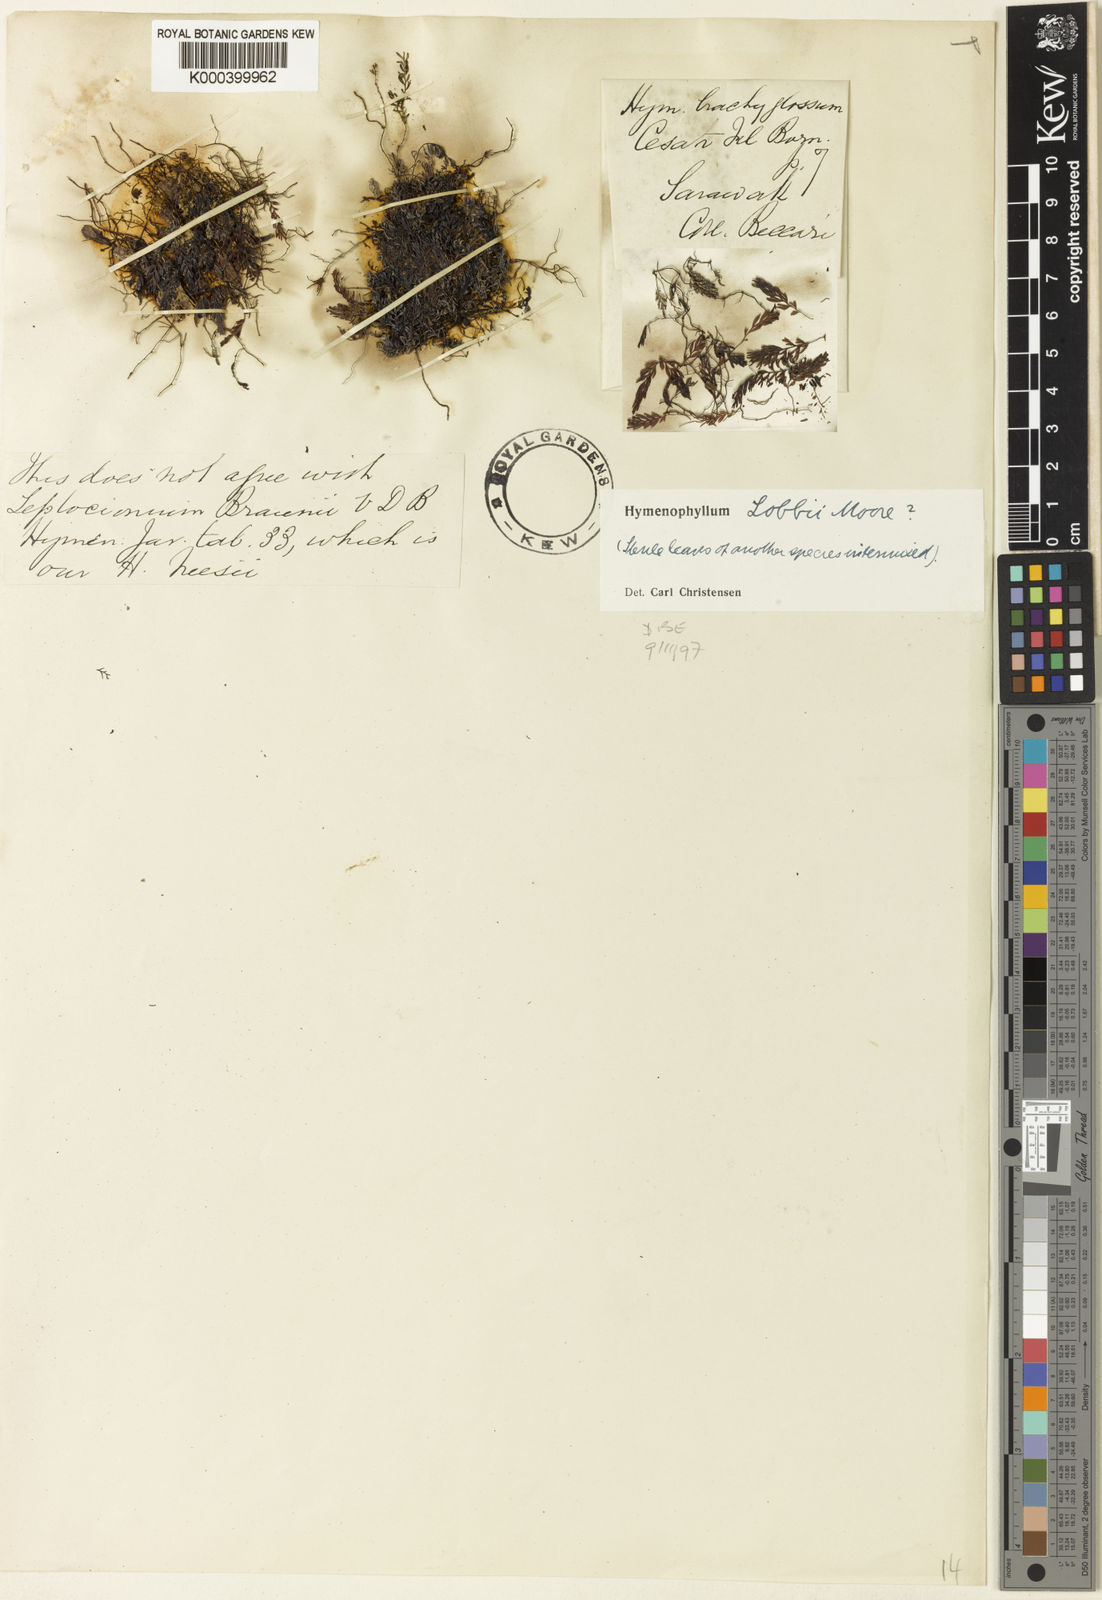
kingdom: Plantae
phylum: Tracheophyta
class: Polypodiopsida
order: Hymenophyllales
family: Hymenophyllaceae
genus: Hymenophyllum
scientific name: Hymenophyllum
